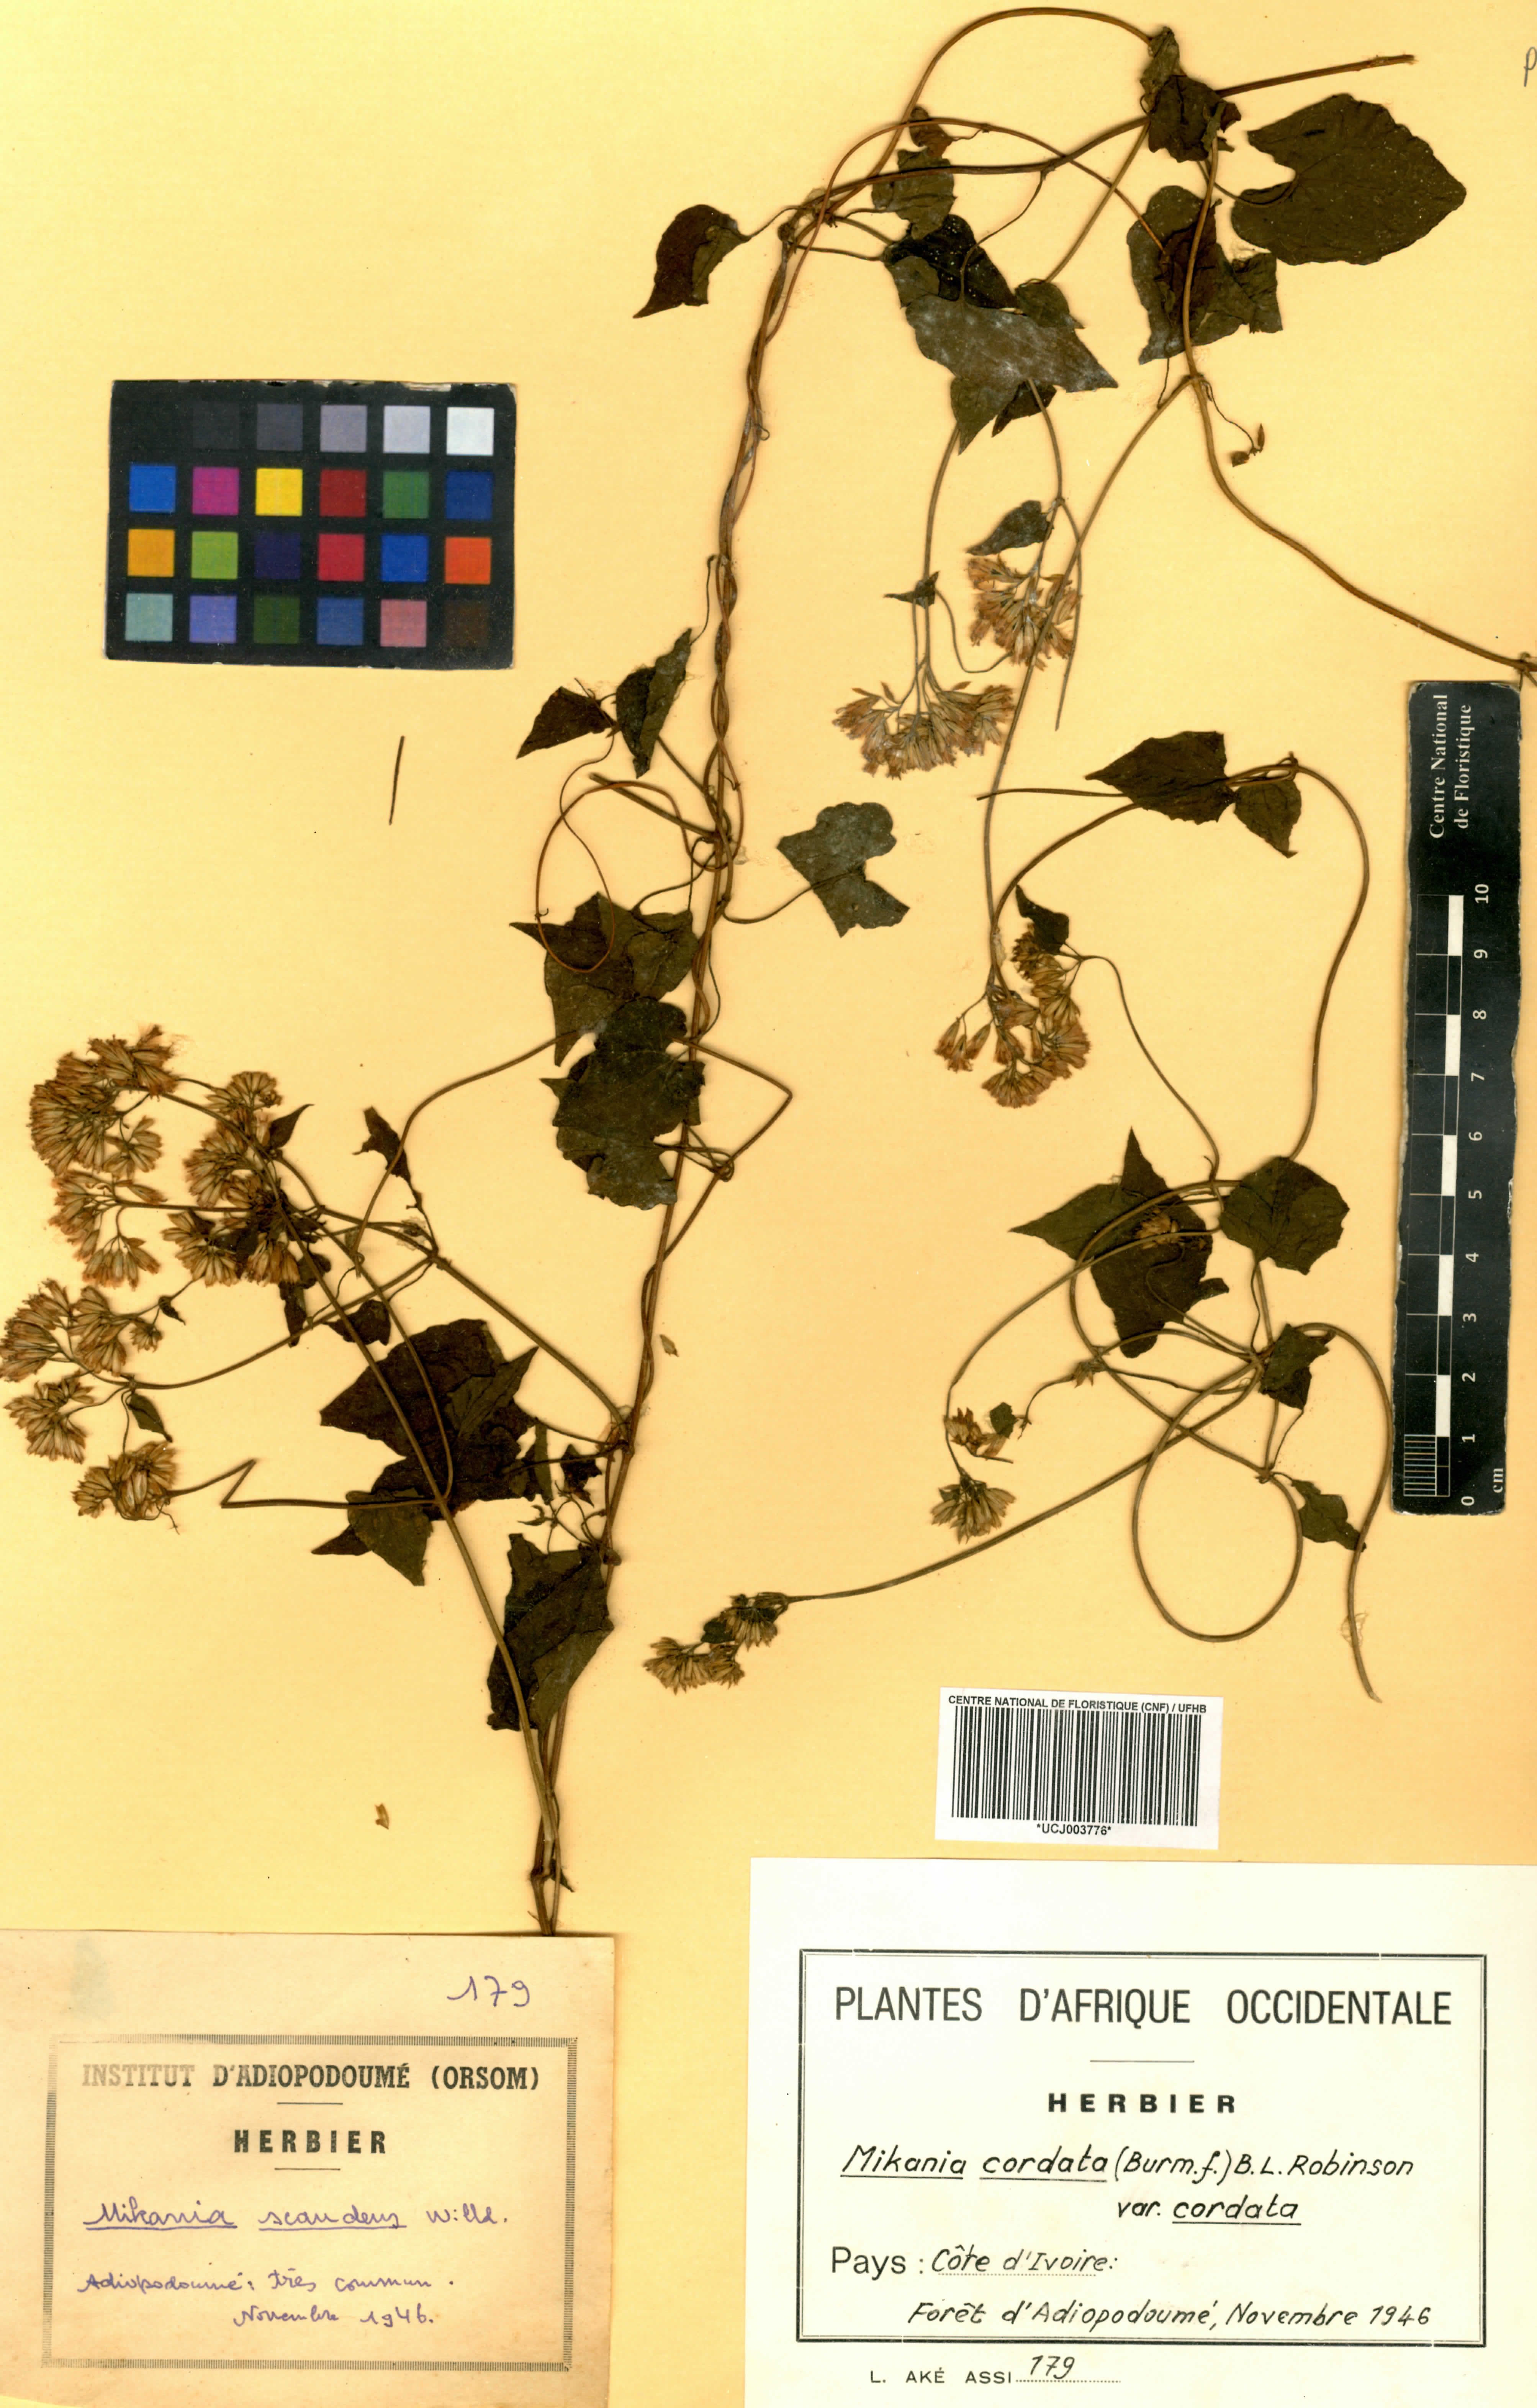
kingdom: Plantae
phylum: Tracheophyta
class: Magnoliopsida
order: Asterales
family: Asteraceae
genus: Mikania
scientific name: Mikania cordata
